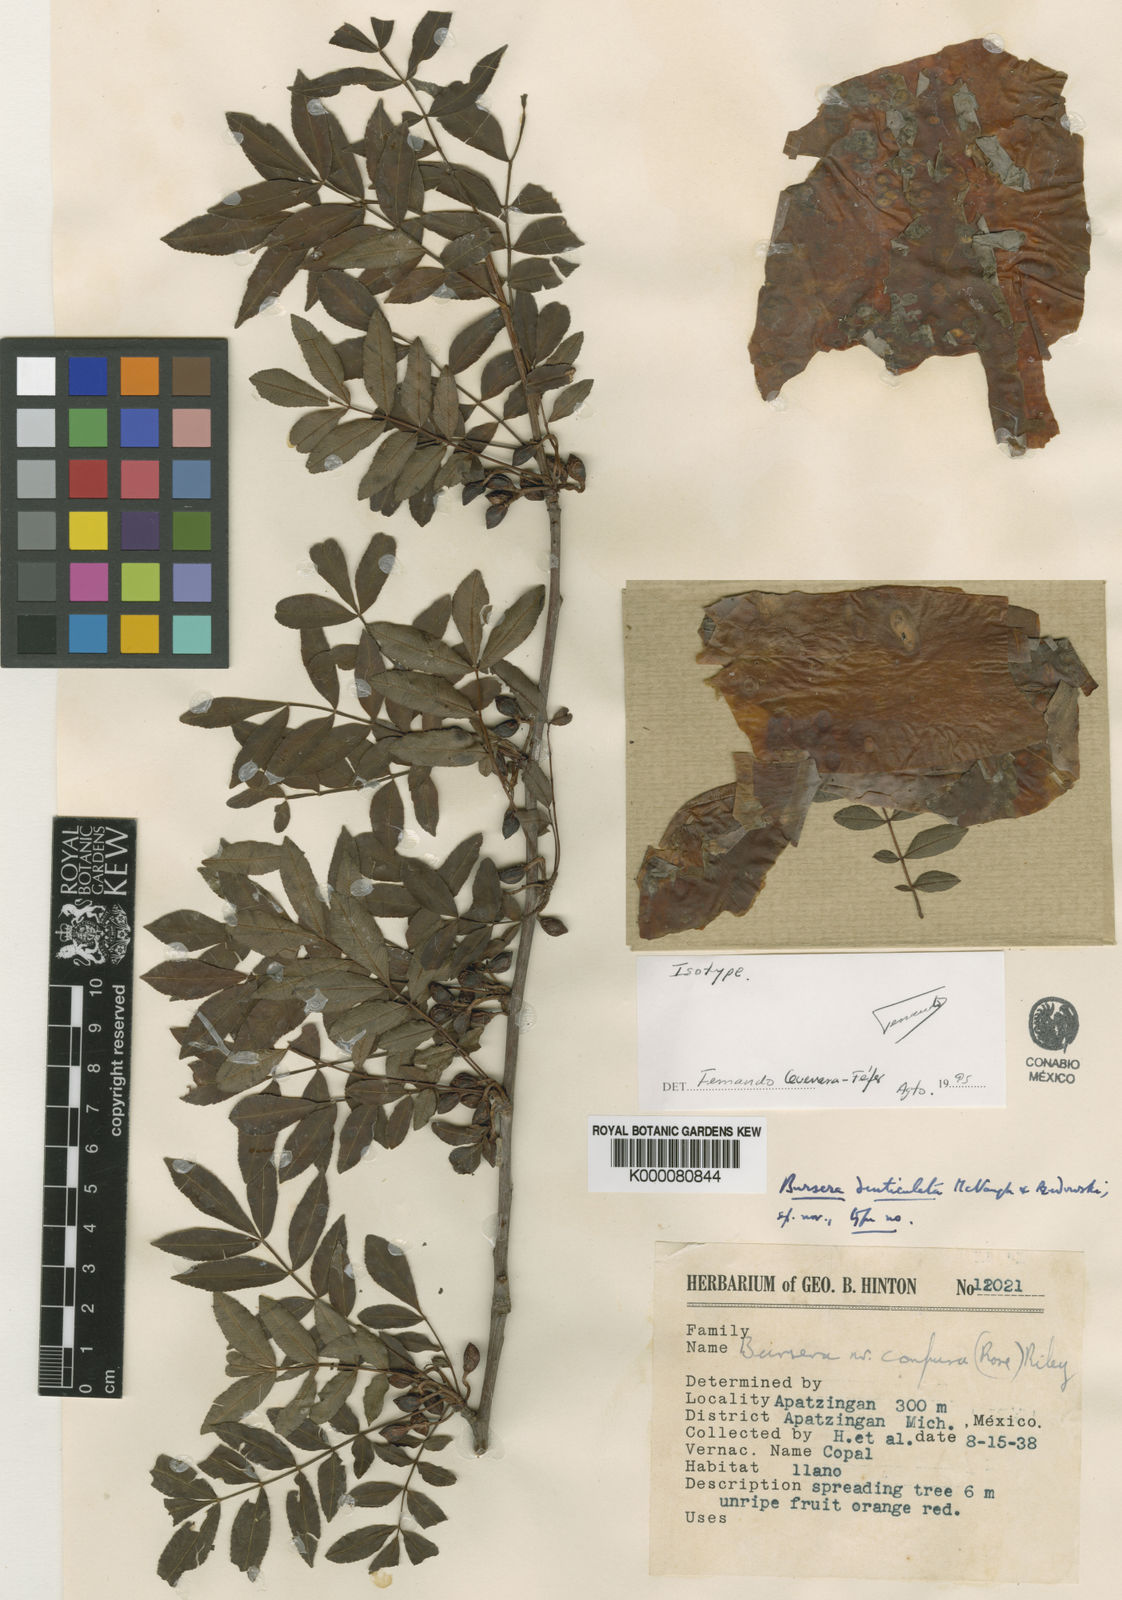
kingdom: Plantae
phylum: Tracheophyta
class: Magnoliopsida
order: Sapindales
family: Burseraceae
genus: Bursera
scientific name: Bursera denticulata
